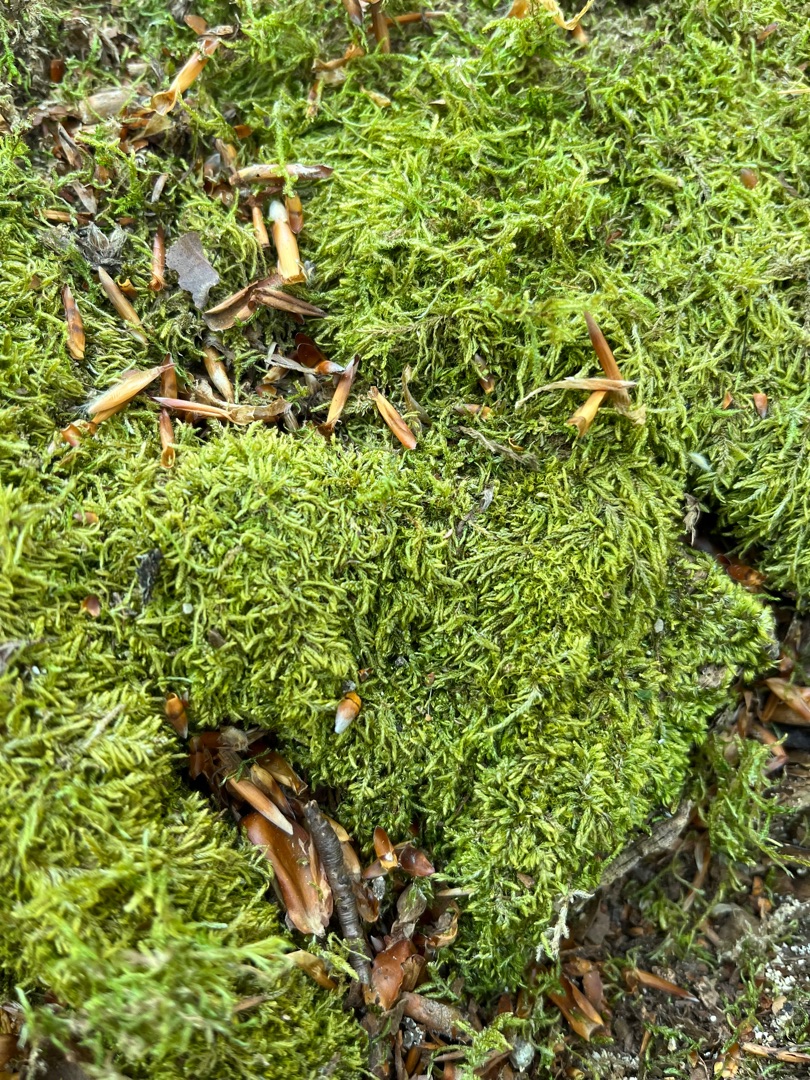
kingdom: Plantae
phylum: Bryophyta
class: Bryopsida
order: Hypnales
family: Hypnaceae
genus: Hypnum
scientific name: Hypnum
